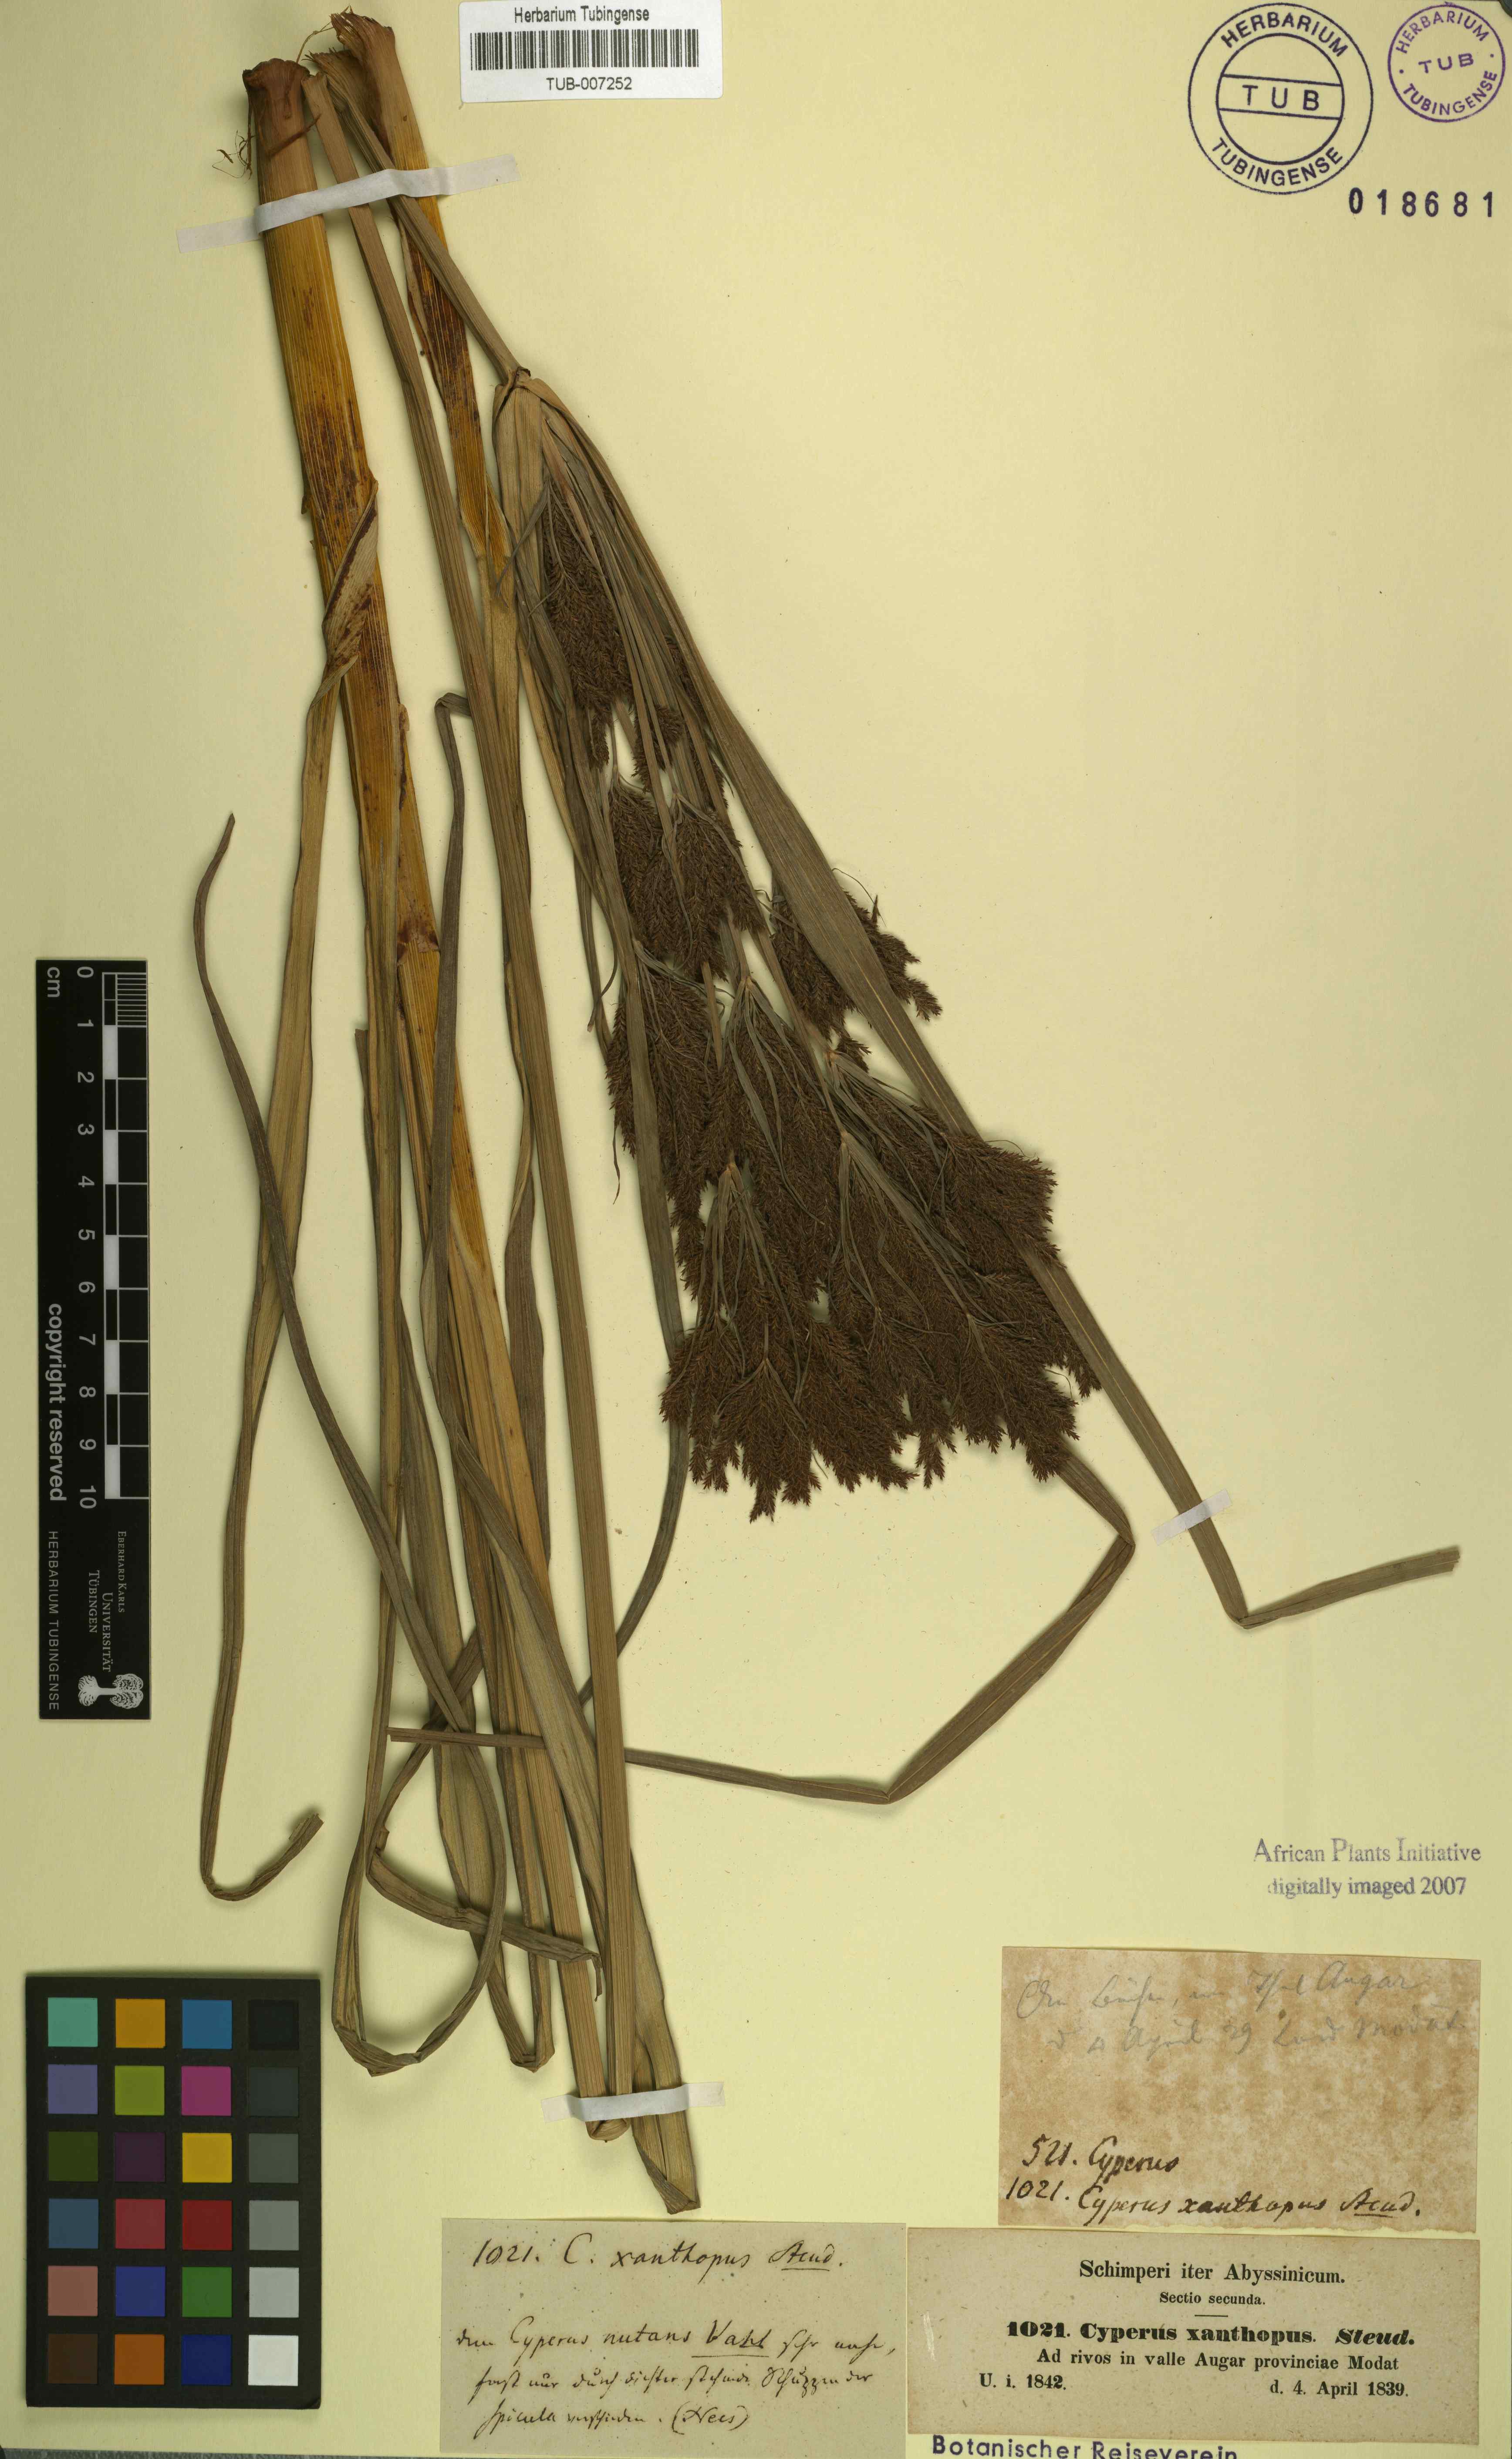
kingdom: Plantae
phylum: Tracheophyta
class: Liliopsida
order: Poales
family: Cyperaceae
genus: Cyperus
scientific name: Cyperus nutans
